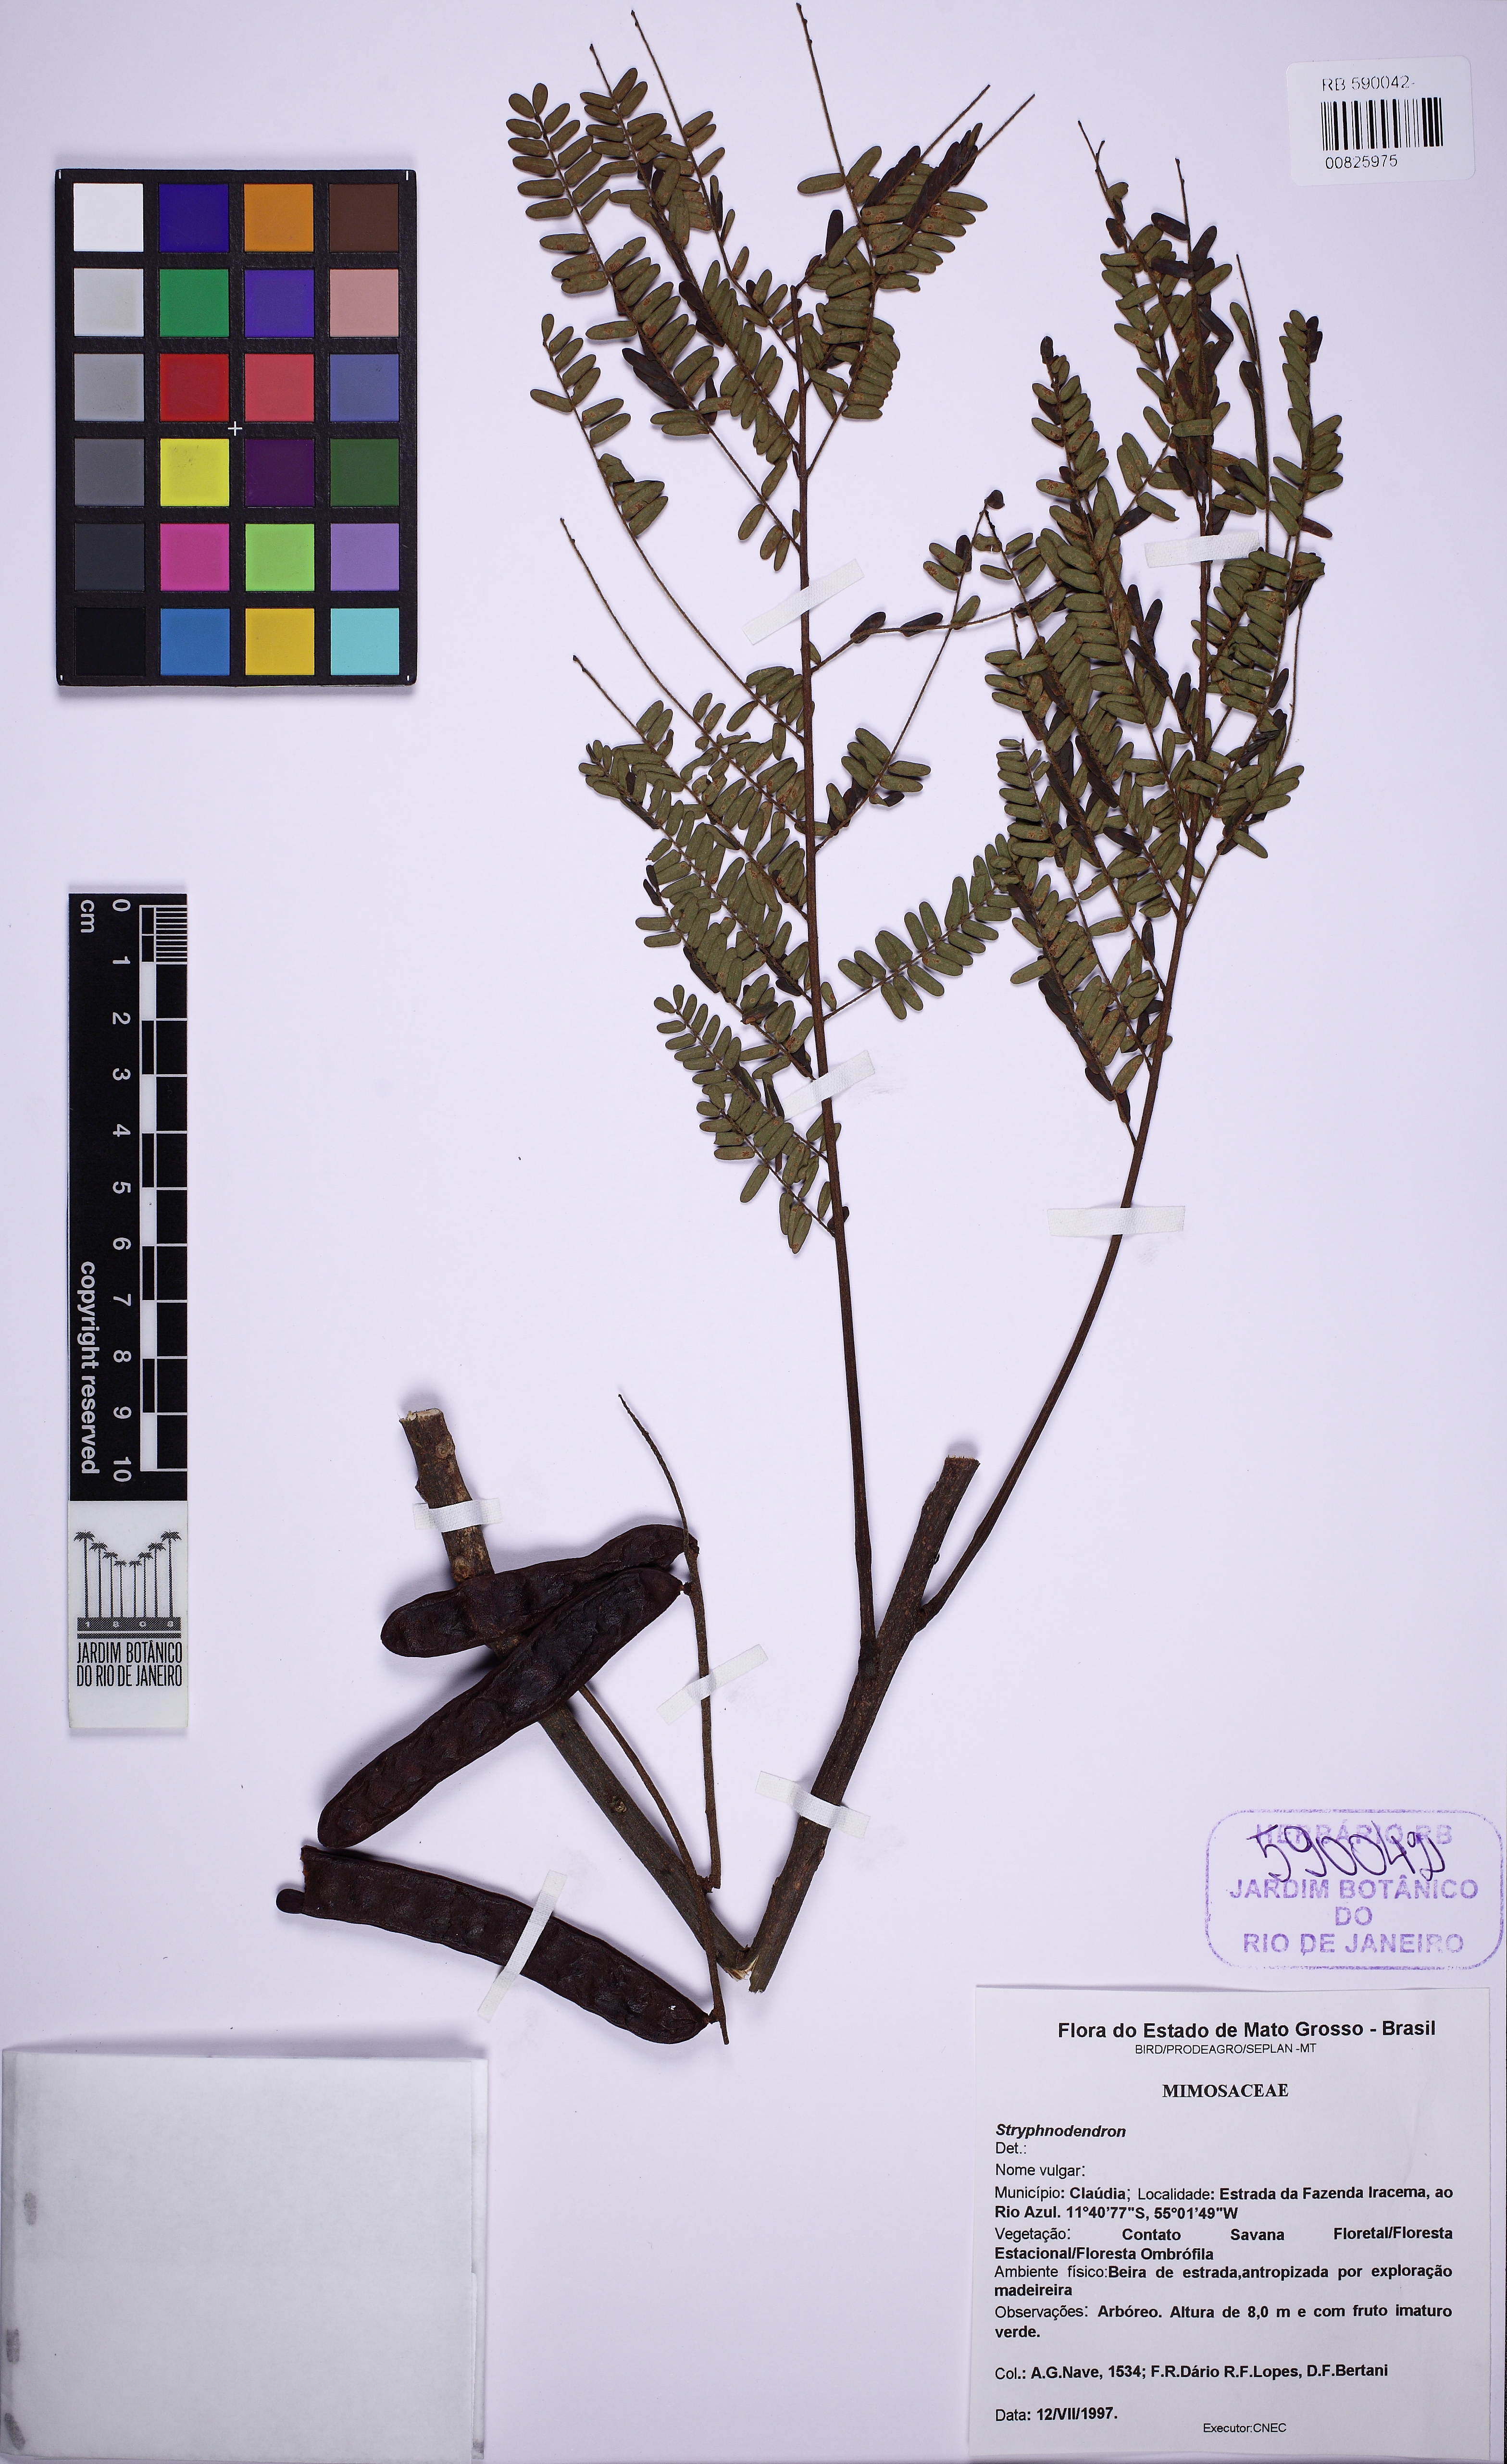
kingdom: Plantae
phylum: Tracheophyta
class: Magnoliopsida
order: Fabales
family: Fabaceae
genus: Stryphnodendron
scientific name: Stryphnodendron
